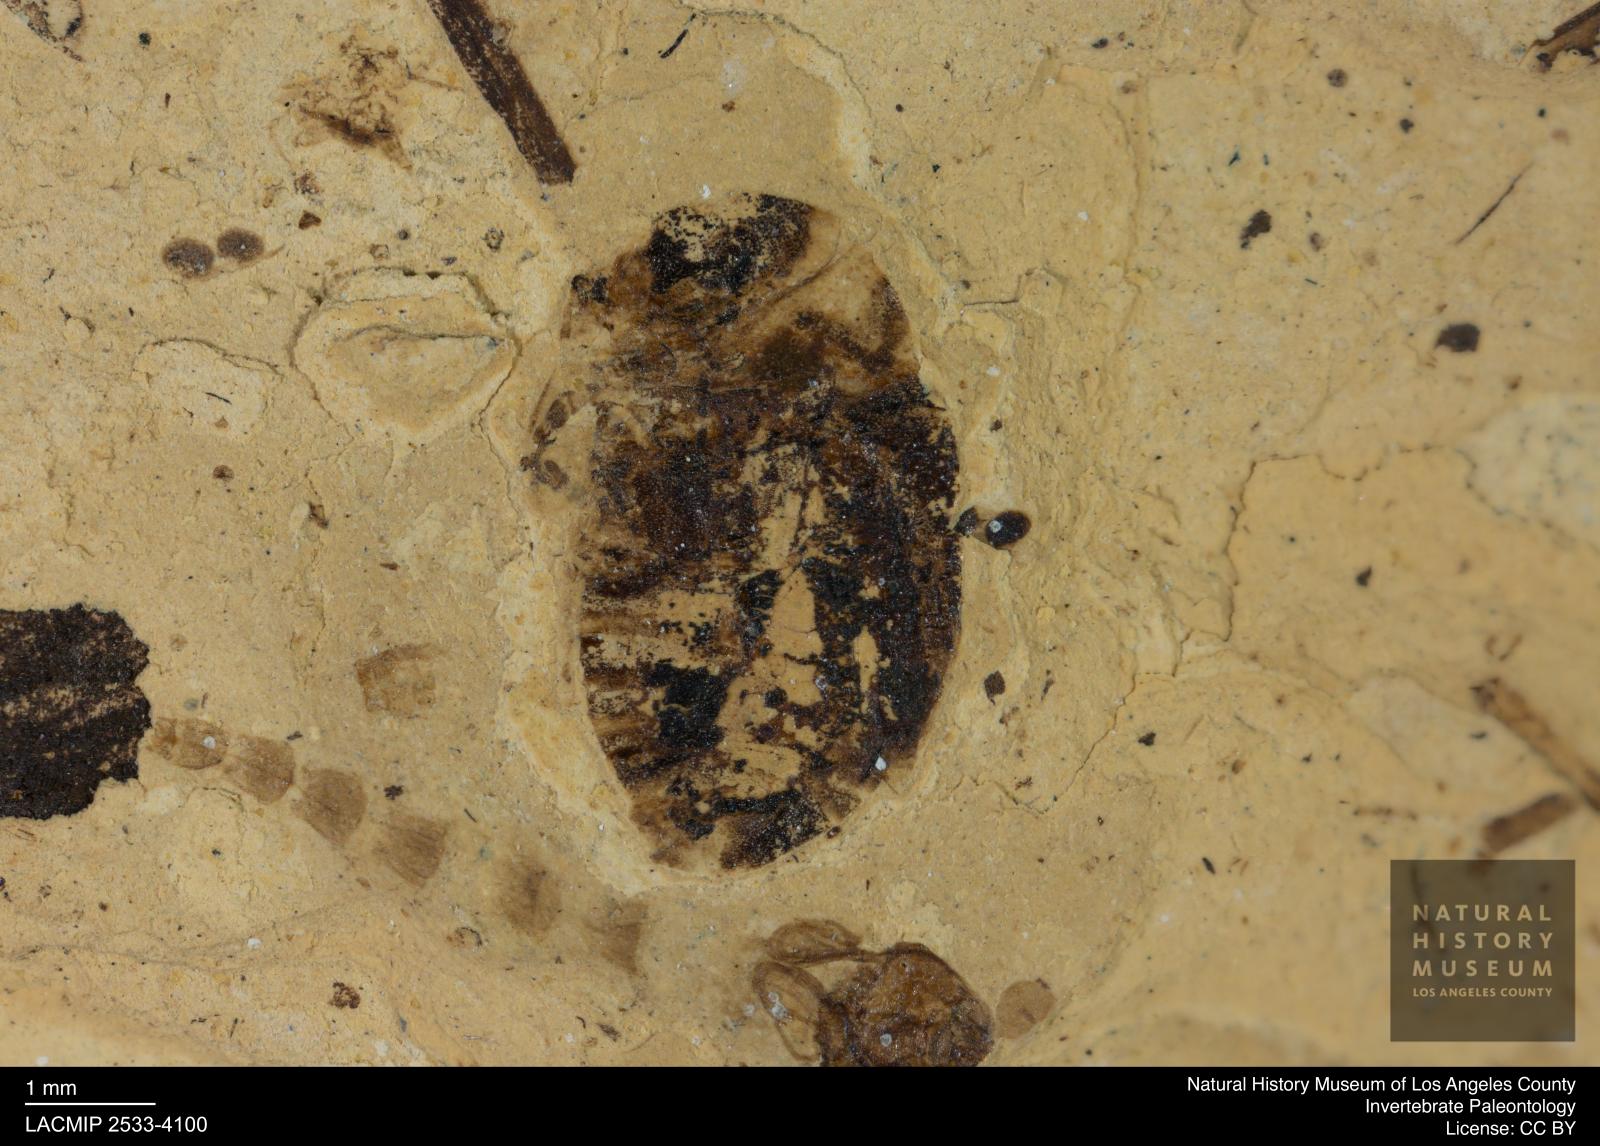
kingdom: Animalia
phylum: Arthropoda
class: Insecta
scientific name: Insecta
